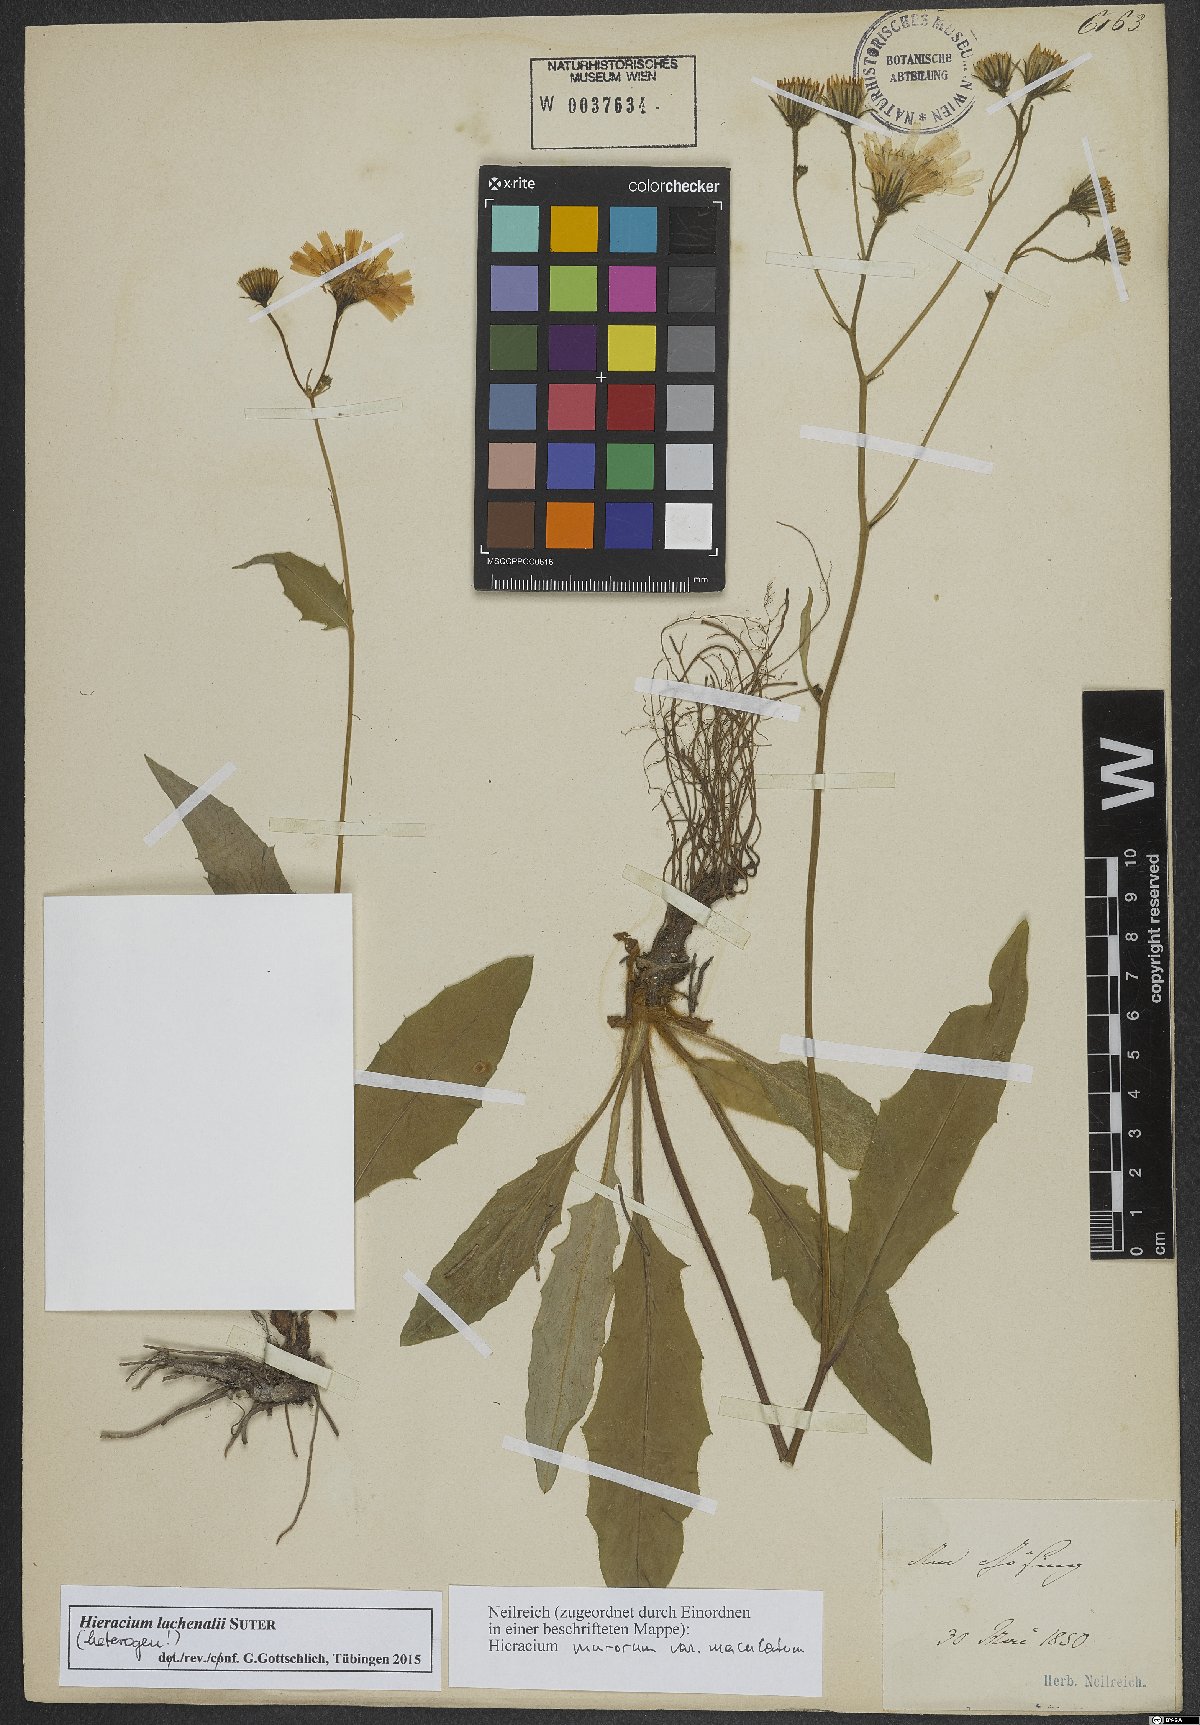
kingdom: Plantae
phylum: Tracheophyta
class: Magnoliopsida
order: Asterales
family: Asteraceae
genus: Hieracium
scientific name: Hieracium lachenalii
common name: Common hawkweed
